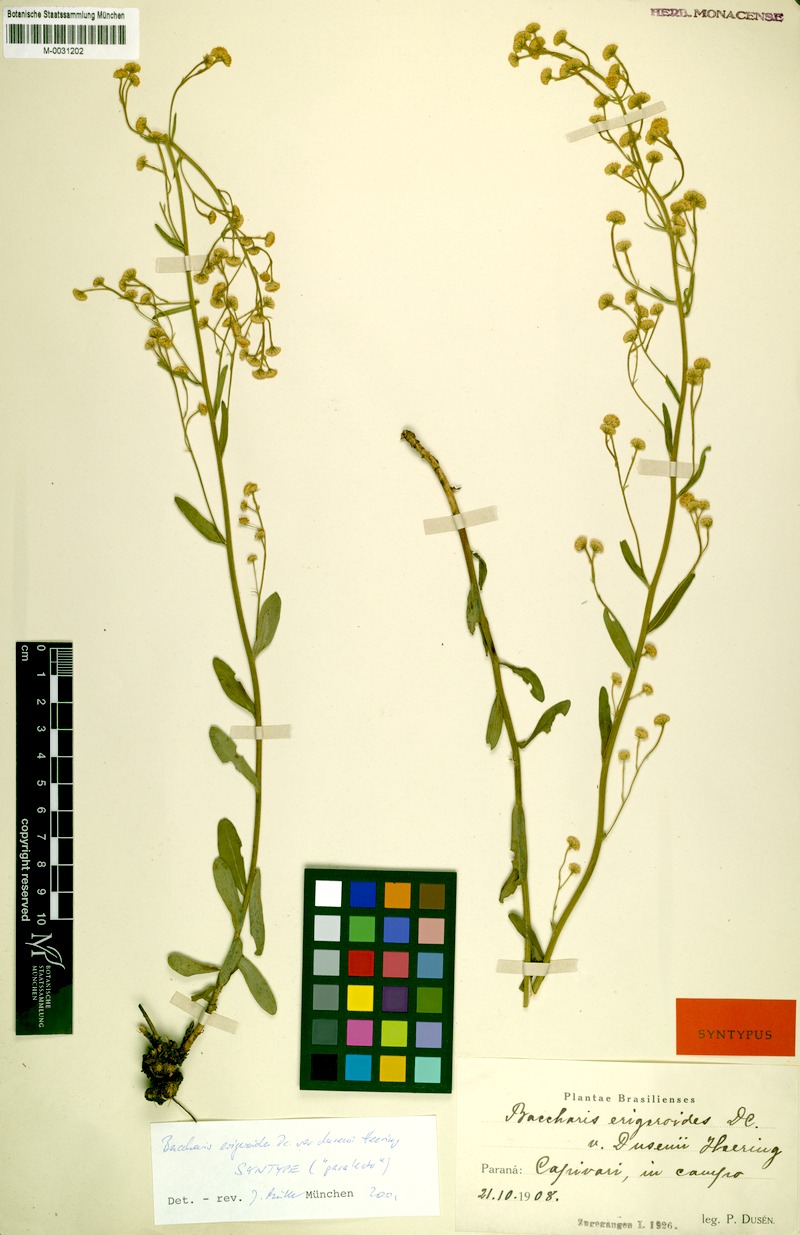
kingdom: Plantae
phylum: Tracheophyta
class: Magnoliopsida
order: Asterales
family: Asteraceae
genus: Baccharis
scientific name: Baccharis erigeroides
